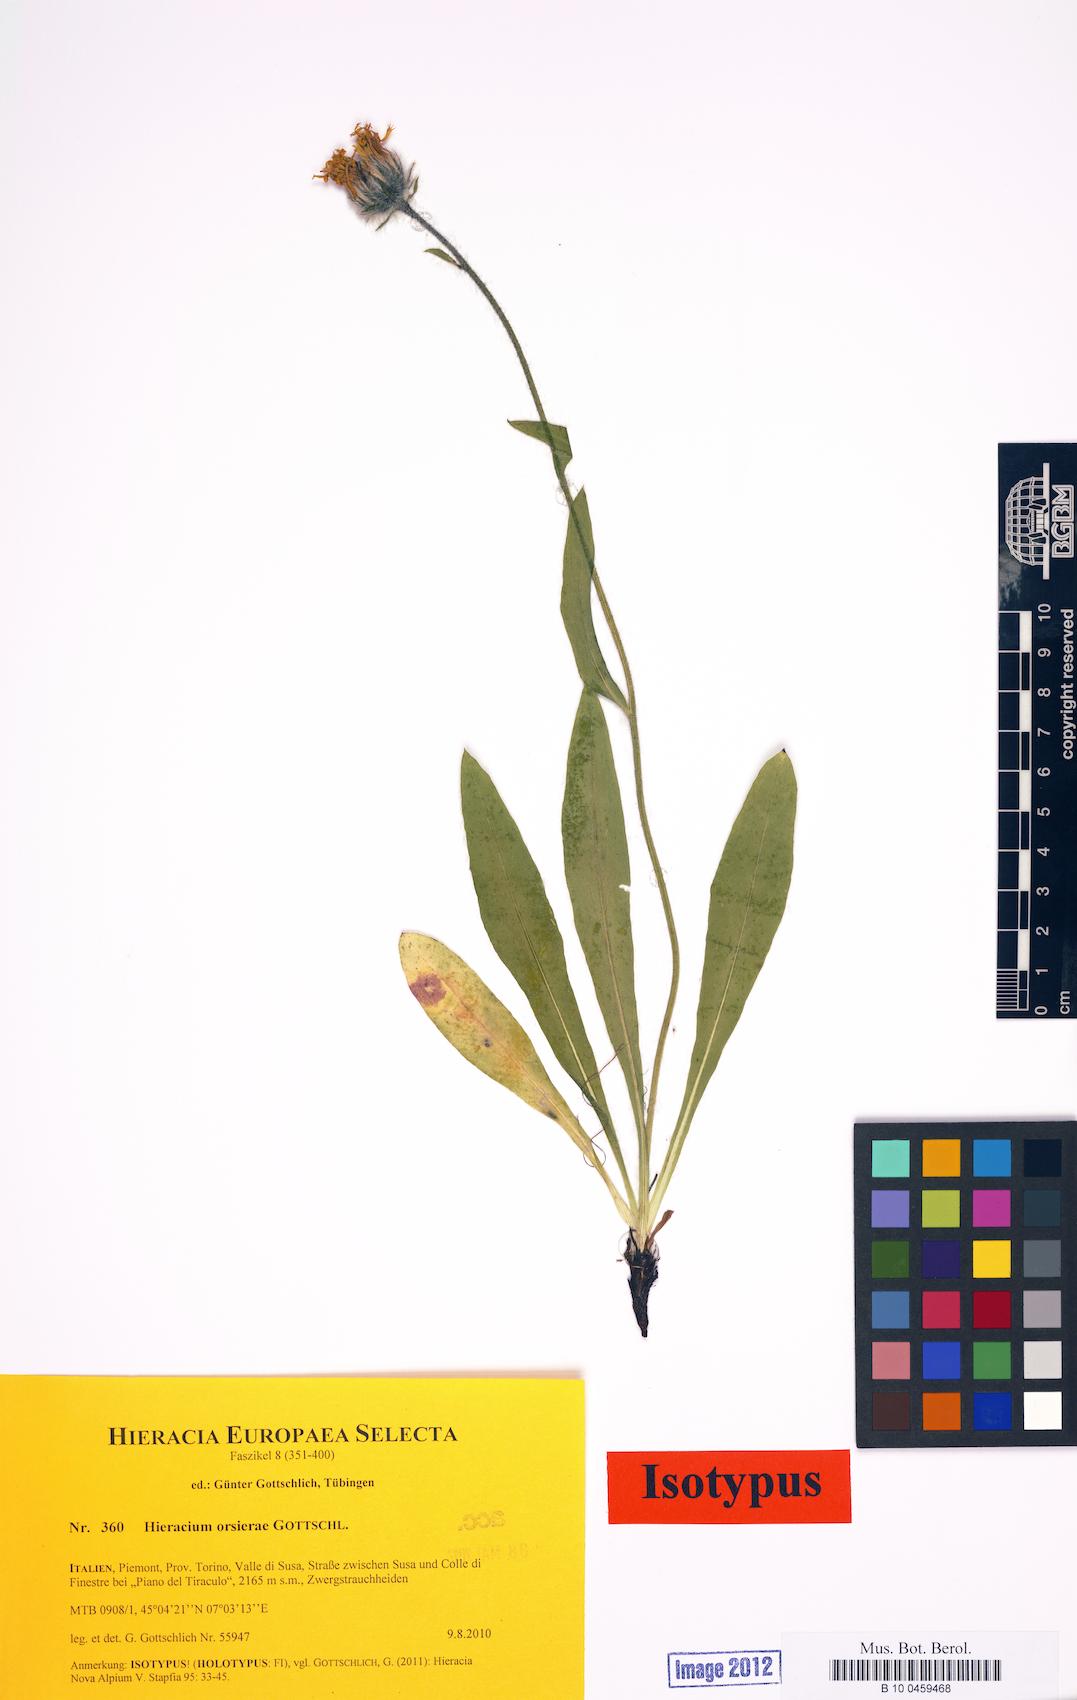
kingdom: Plantae
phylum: Tracheophyta
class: Magnoliopsida
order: Asterales
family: Asteraceae
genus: Hieracium
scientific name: Hieracium orsierae
